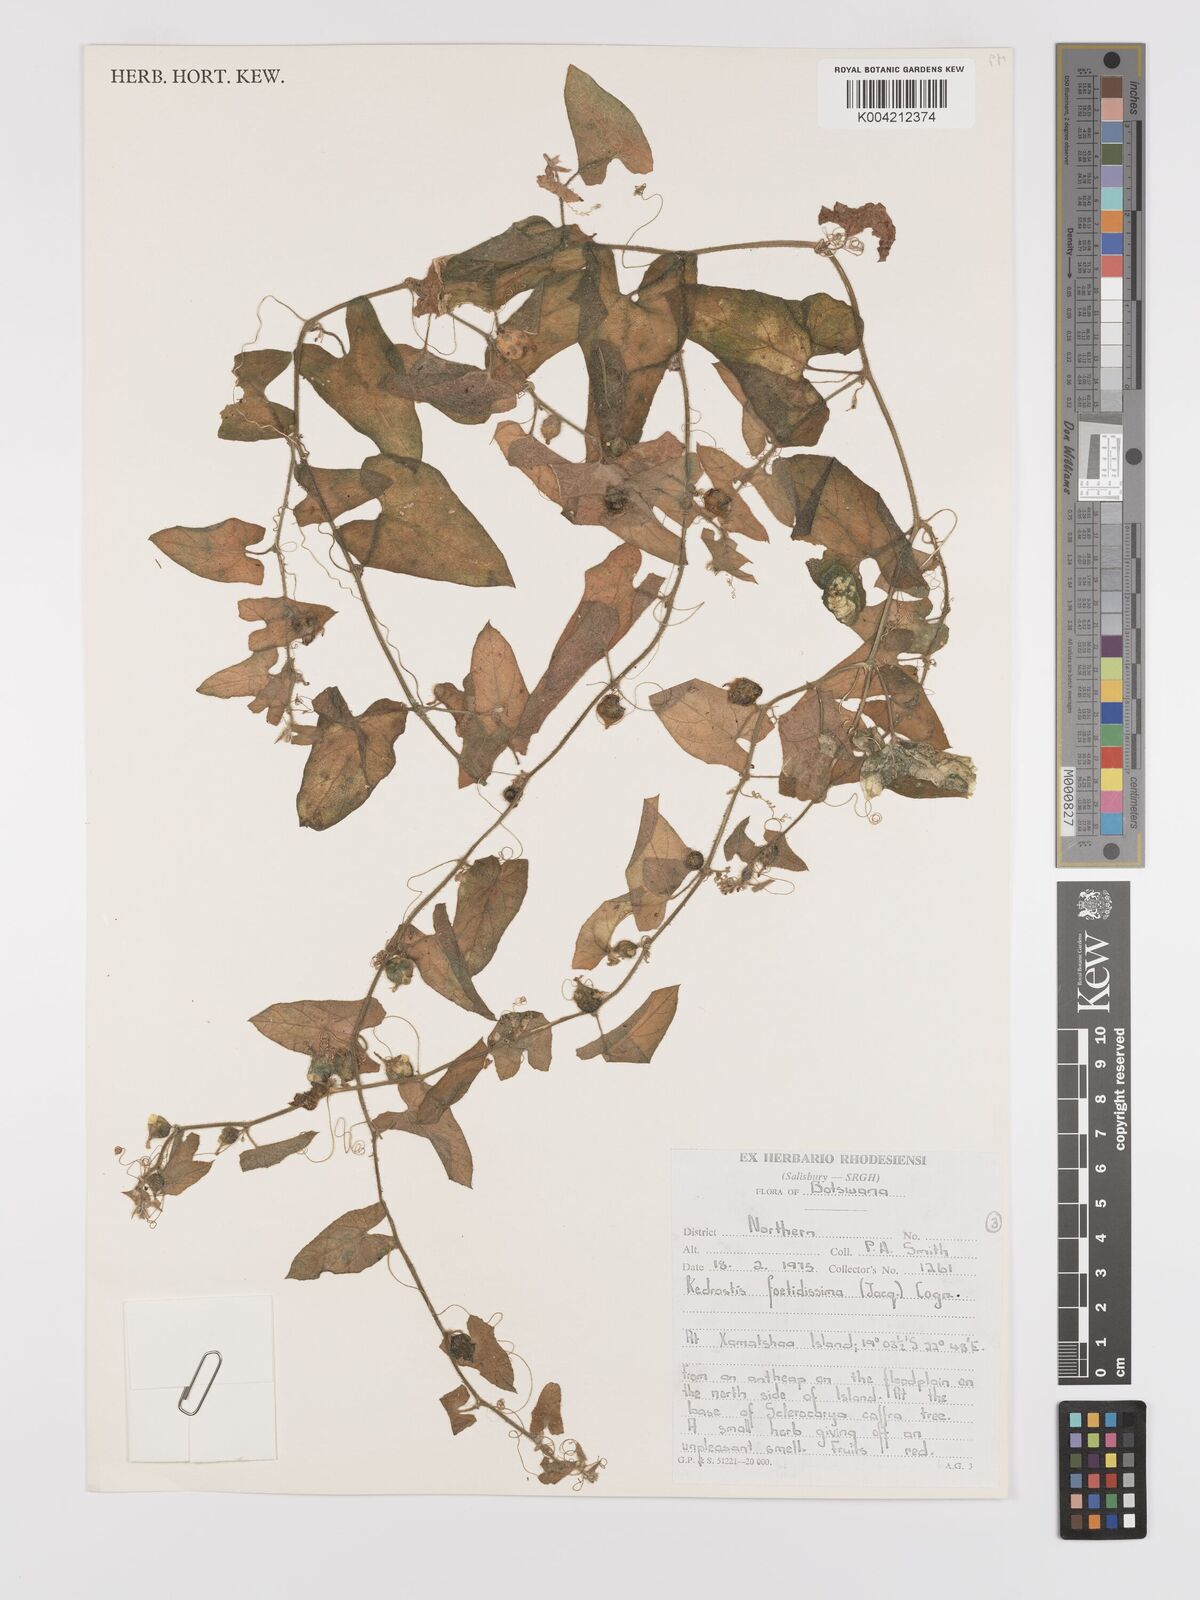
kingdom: Plantae
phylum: Tracheophyta
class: Magnoliopsida
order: Cucurbitales
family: Cucurbitaceae
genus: Kedrostis
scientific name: Kedrostis foetidissima
